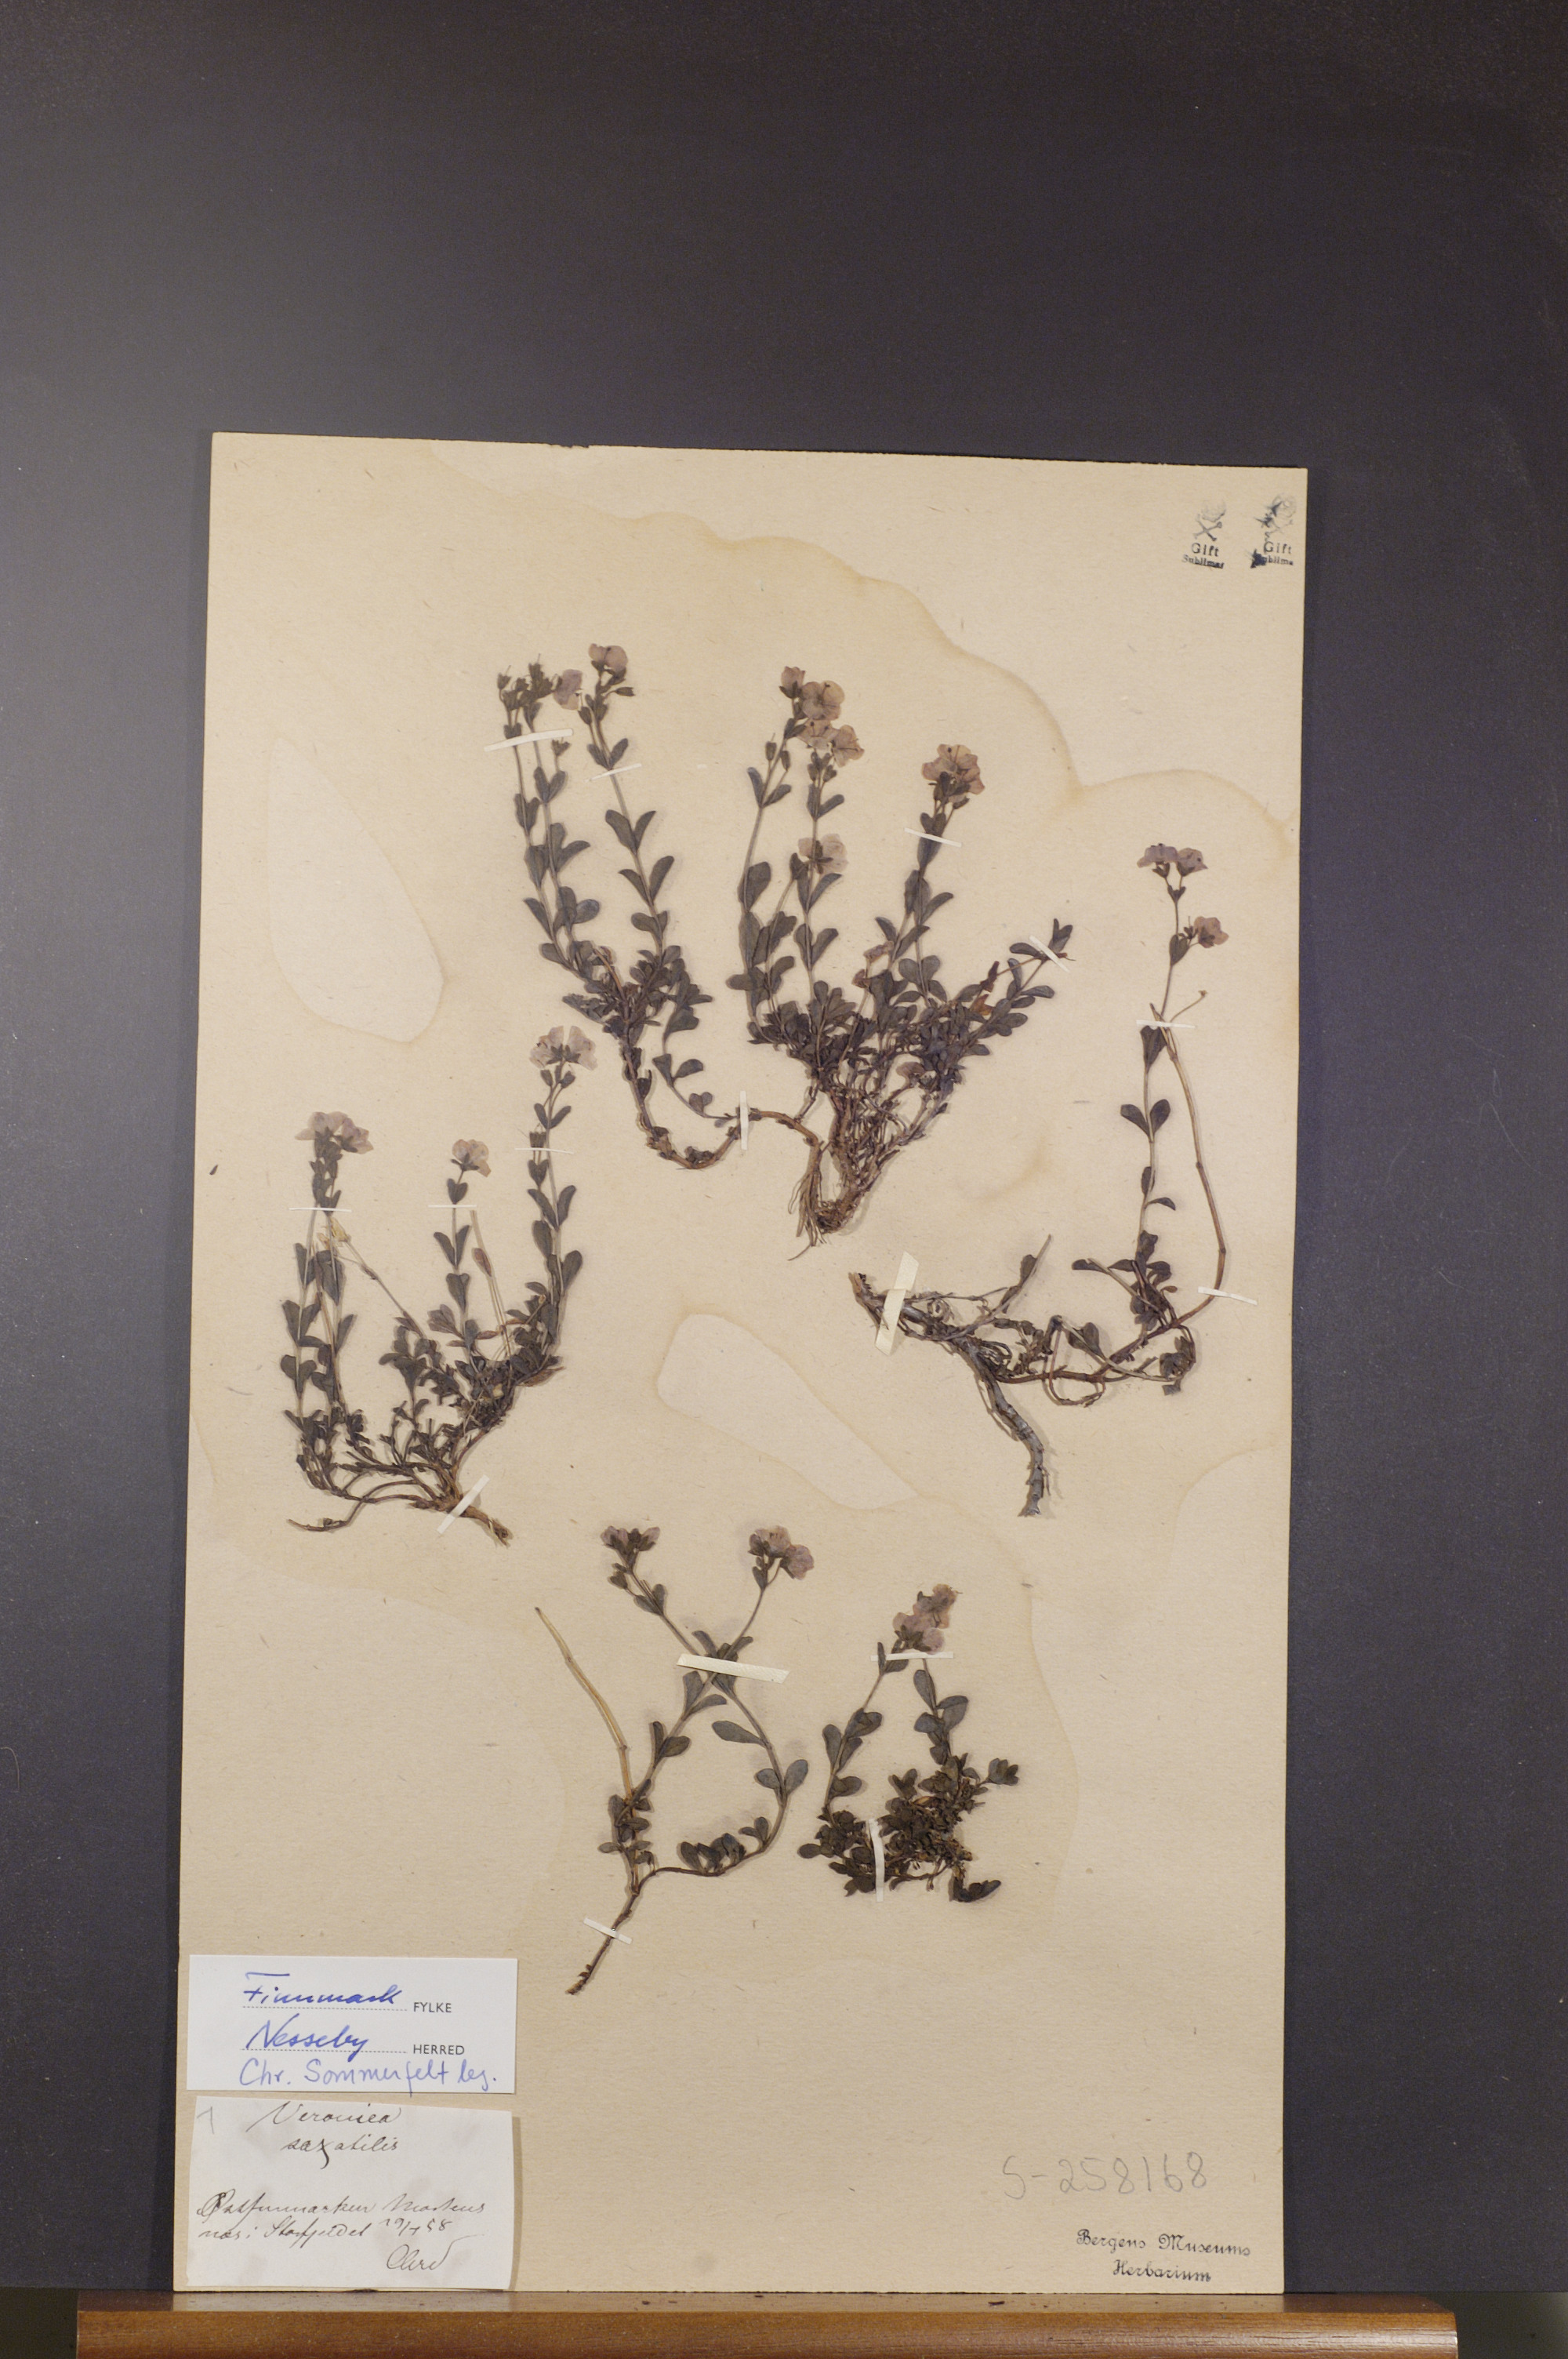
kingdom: Plantae
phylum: Tracheophyta
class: Magnoliopsida
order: Lamiales
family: Plantaginaceae
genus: Veronica
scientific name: Veronica fruticans
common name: Rock speedwell
